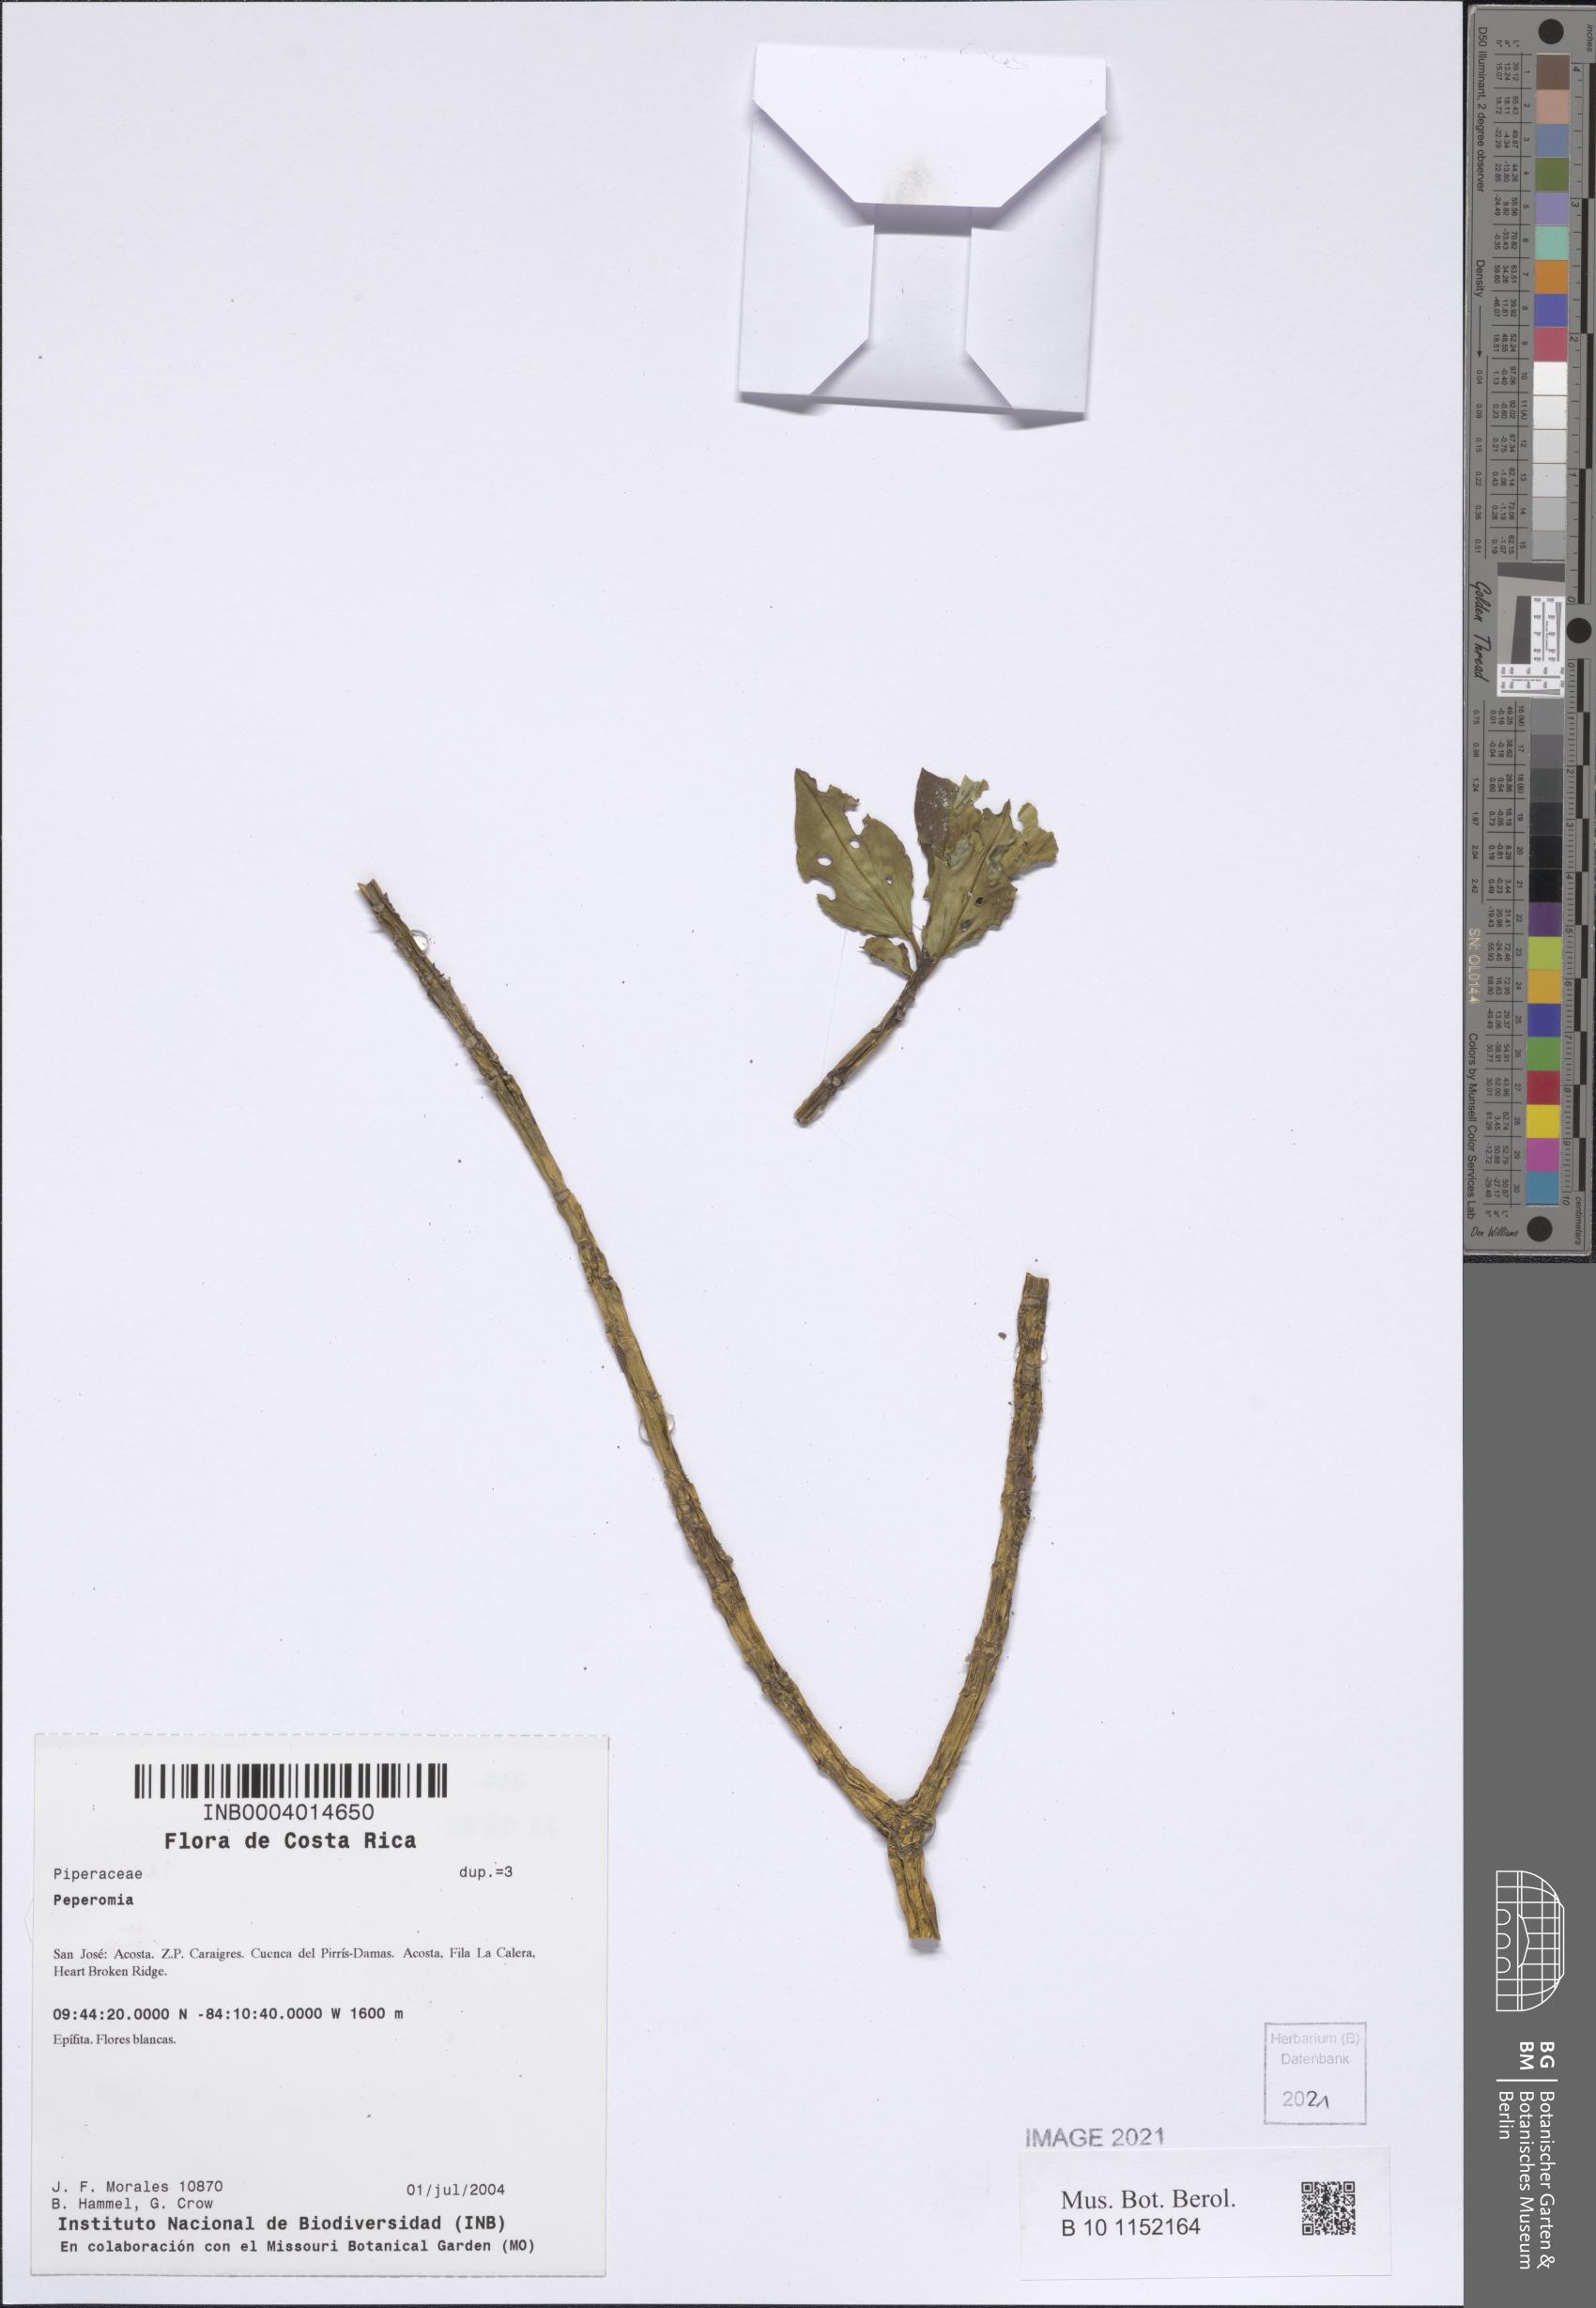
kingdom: Plantae
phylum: Tracheophyta
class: Magnoliopsida
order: Piperales
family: Piperaceae
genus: Peperomia
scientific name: Peperomia
